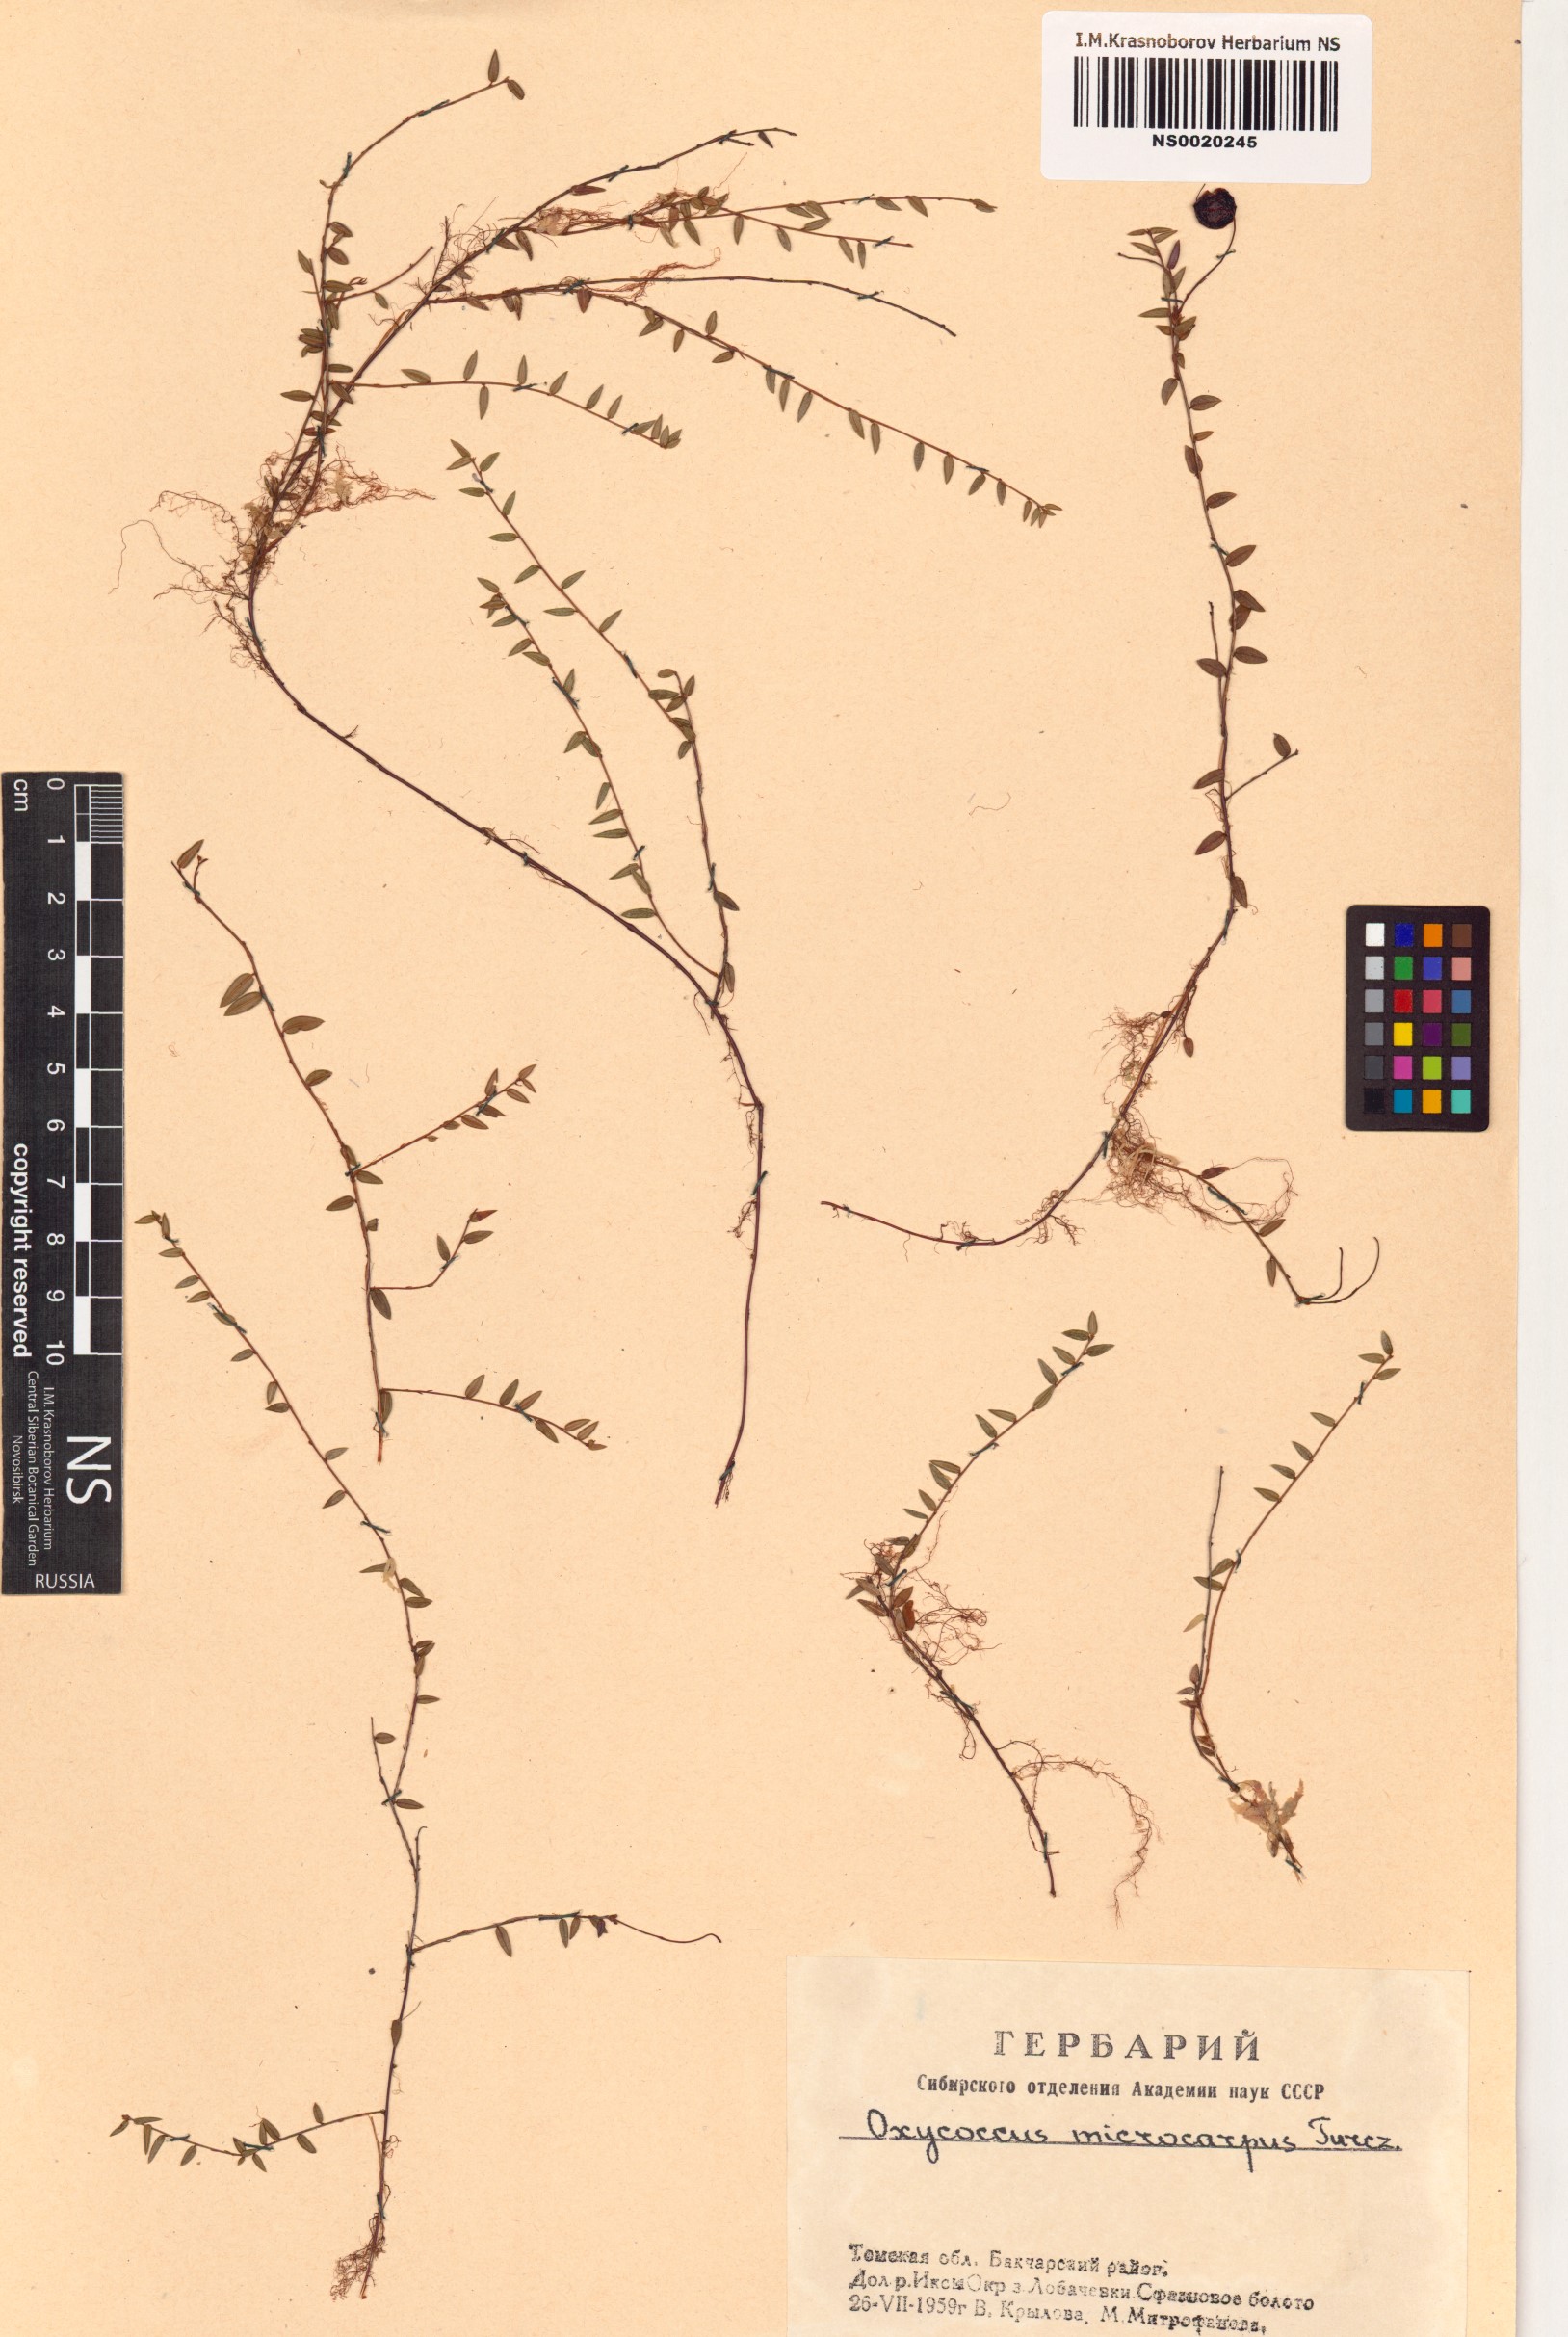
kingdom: Plantae
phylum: Tracheophyta
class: Magnoliopsida
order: Ericales
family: Ericaceae
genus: Vaccinium
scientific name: Vaccinium microcarpum
